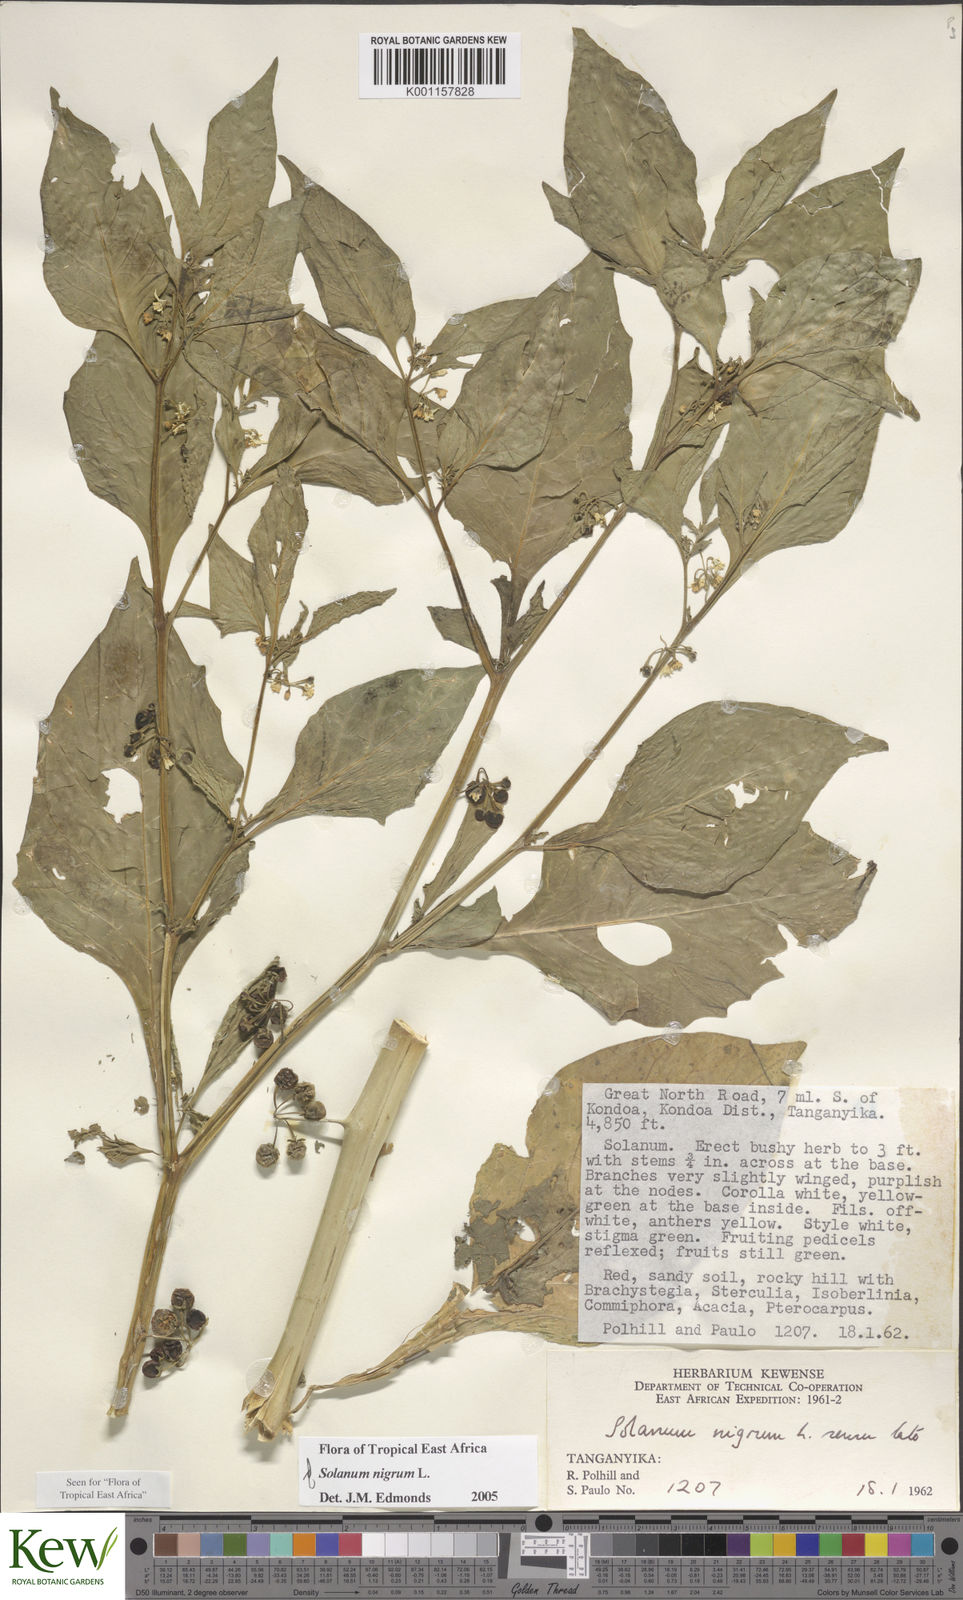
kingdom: Plantae
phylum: Tracheophyta
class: Magnoliopsida
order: Solanales
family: Solanaceae
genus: Solanum
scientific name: Solanum nigrum
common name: Black nightshade
